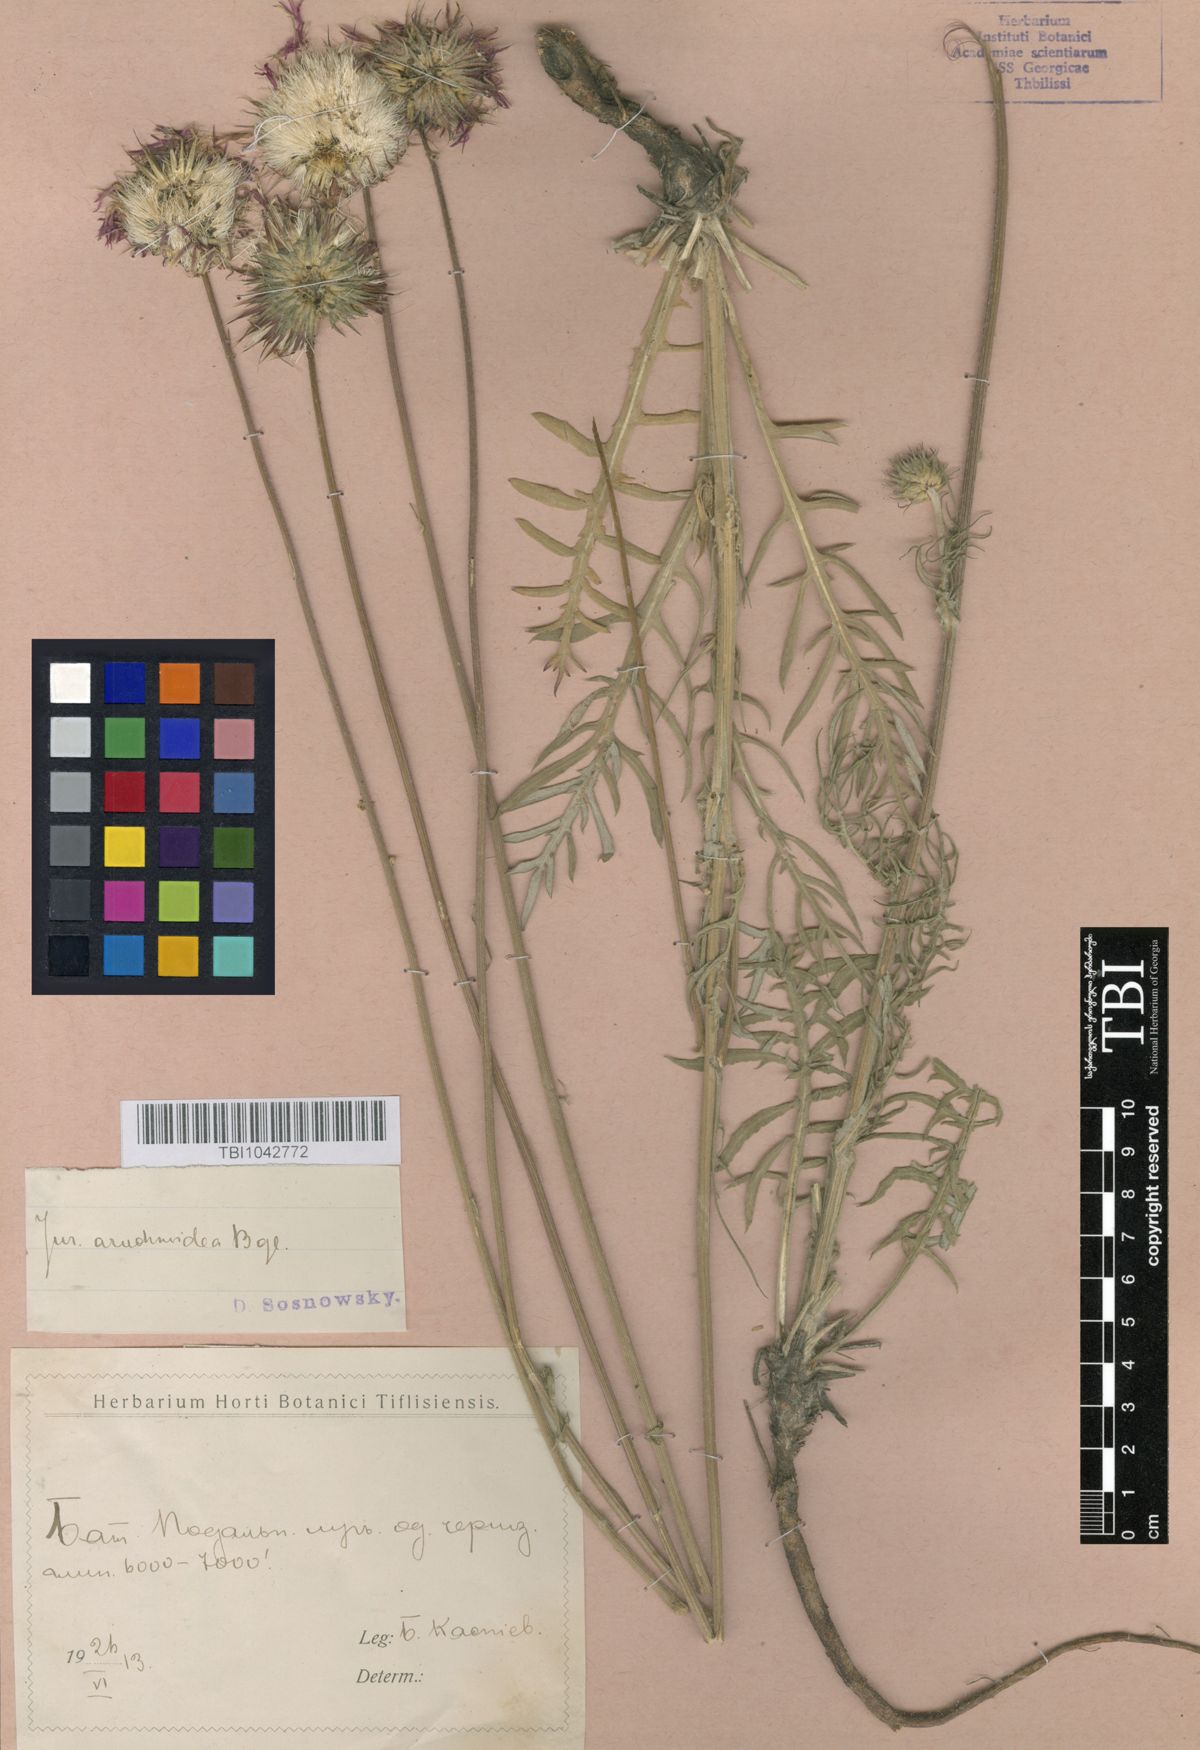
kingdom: Plantae
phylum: Tracheophyta
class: Magnoliopsida
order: Asterales
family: Asteraceae
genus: Jurinea
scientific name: Jurinea blanda
